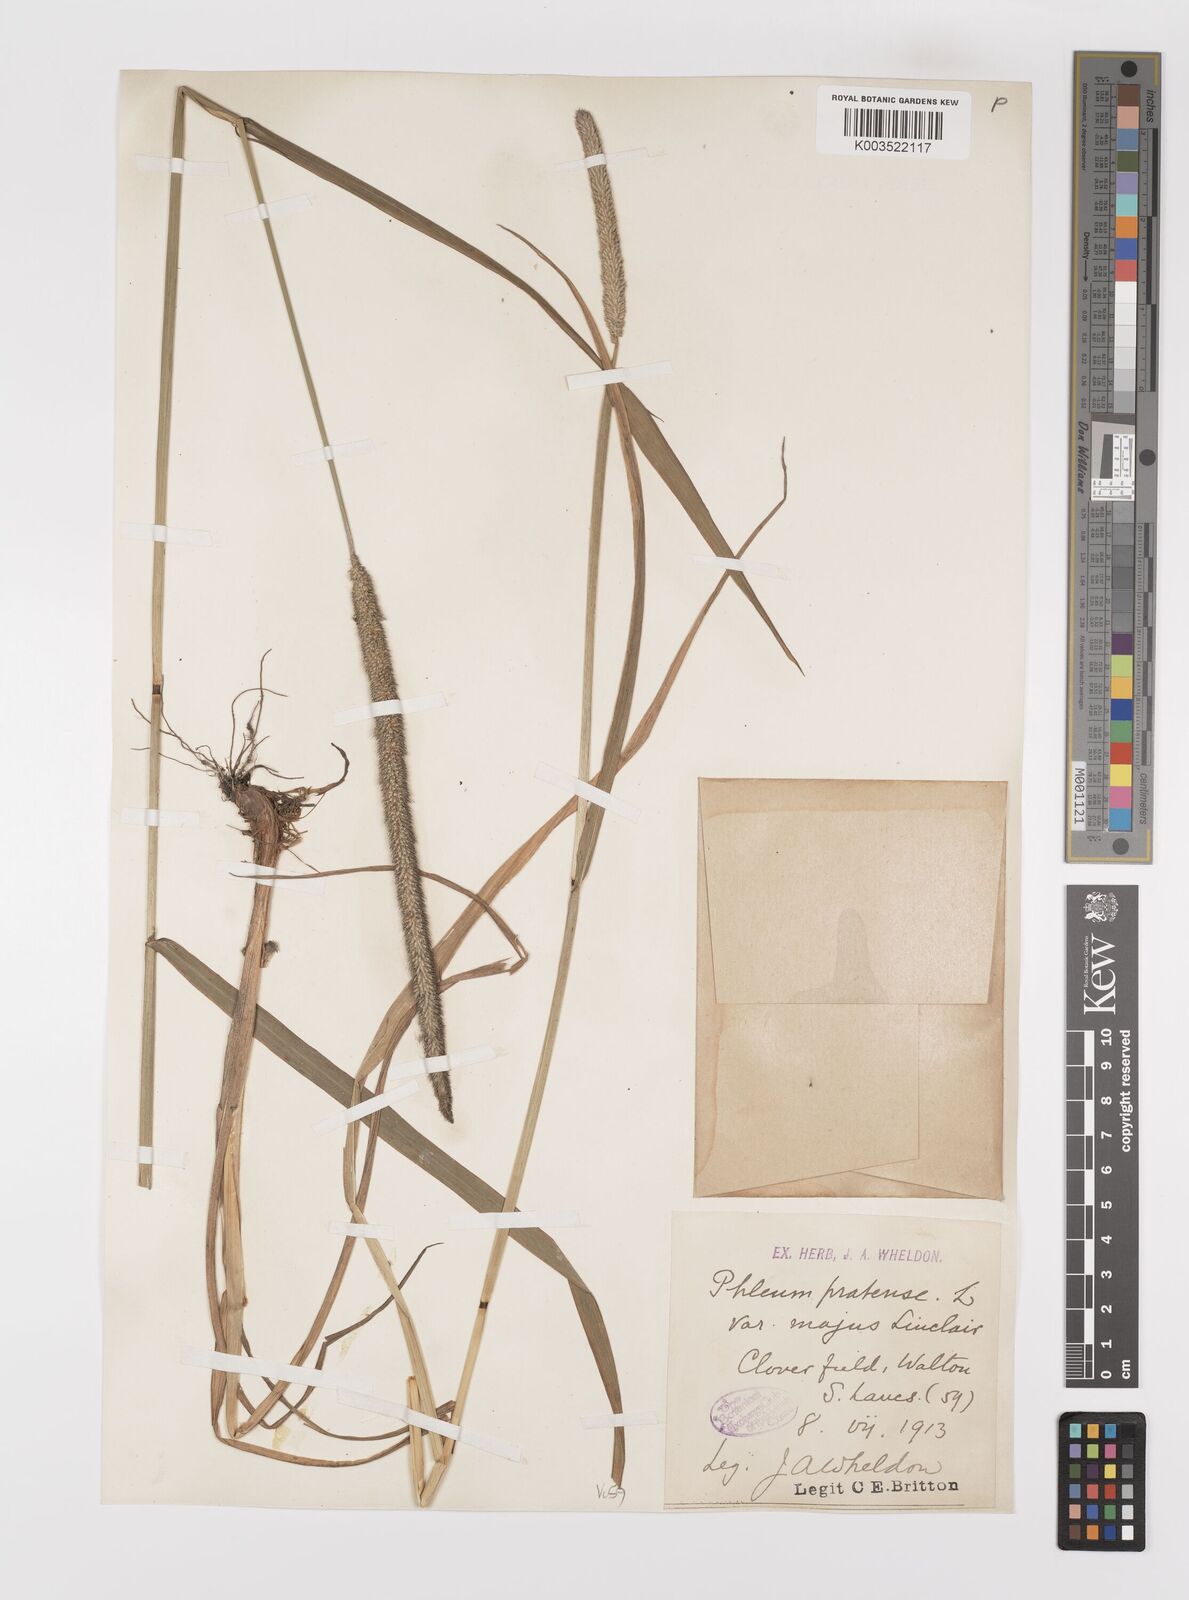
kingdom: Plantae
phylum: Tracheophyta
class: Liliopsida
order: Poales
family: Poaceae
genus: Phleum
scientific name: Phleum pratense
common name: Timothy grass
